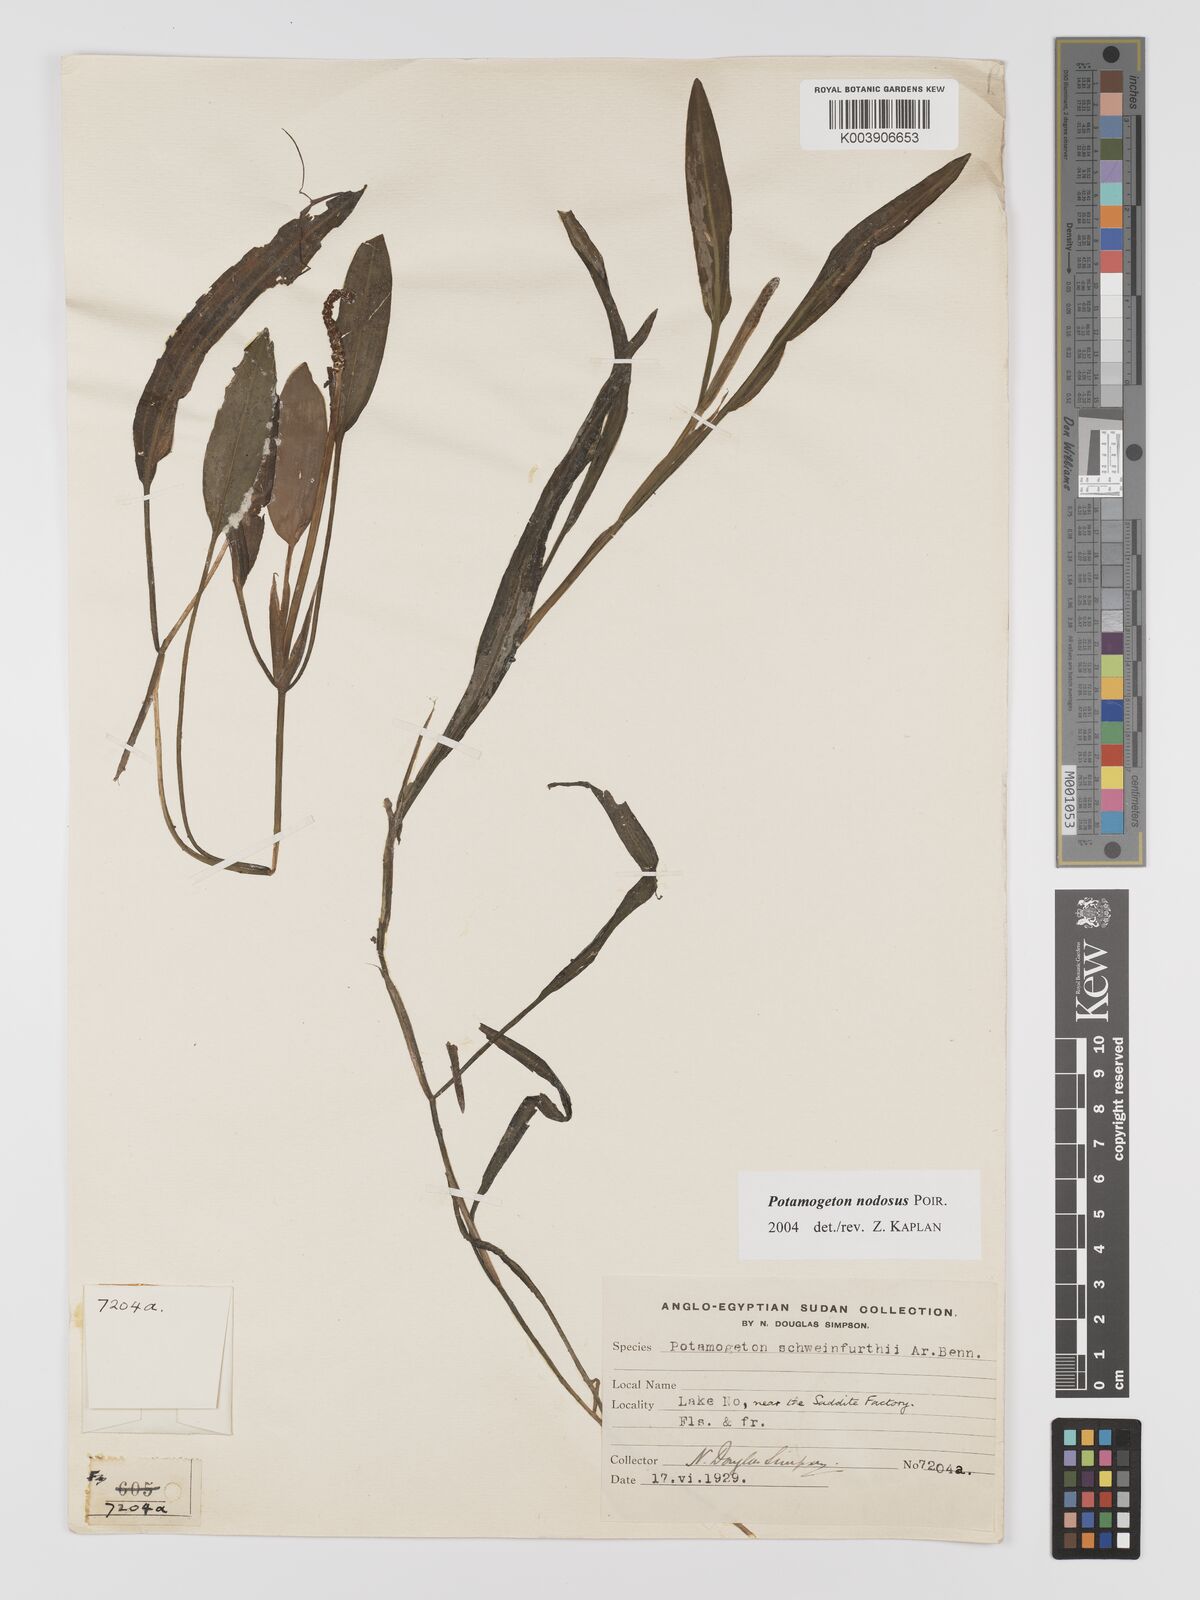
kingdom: Plantae
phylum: Tracheophyta
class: Liliopsida
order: Alismatales
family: Potamogetonaceae
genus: Potamogeton
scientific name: Potamogeton nodosus
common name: Loddon pondweed
